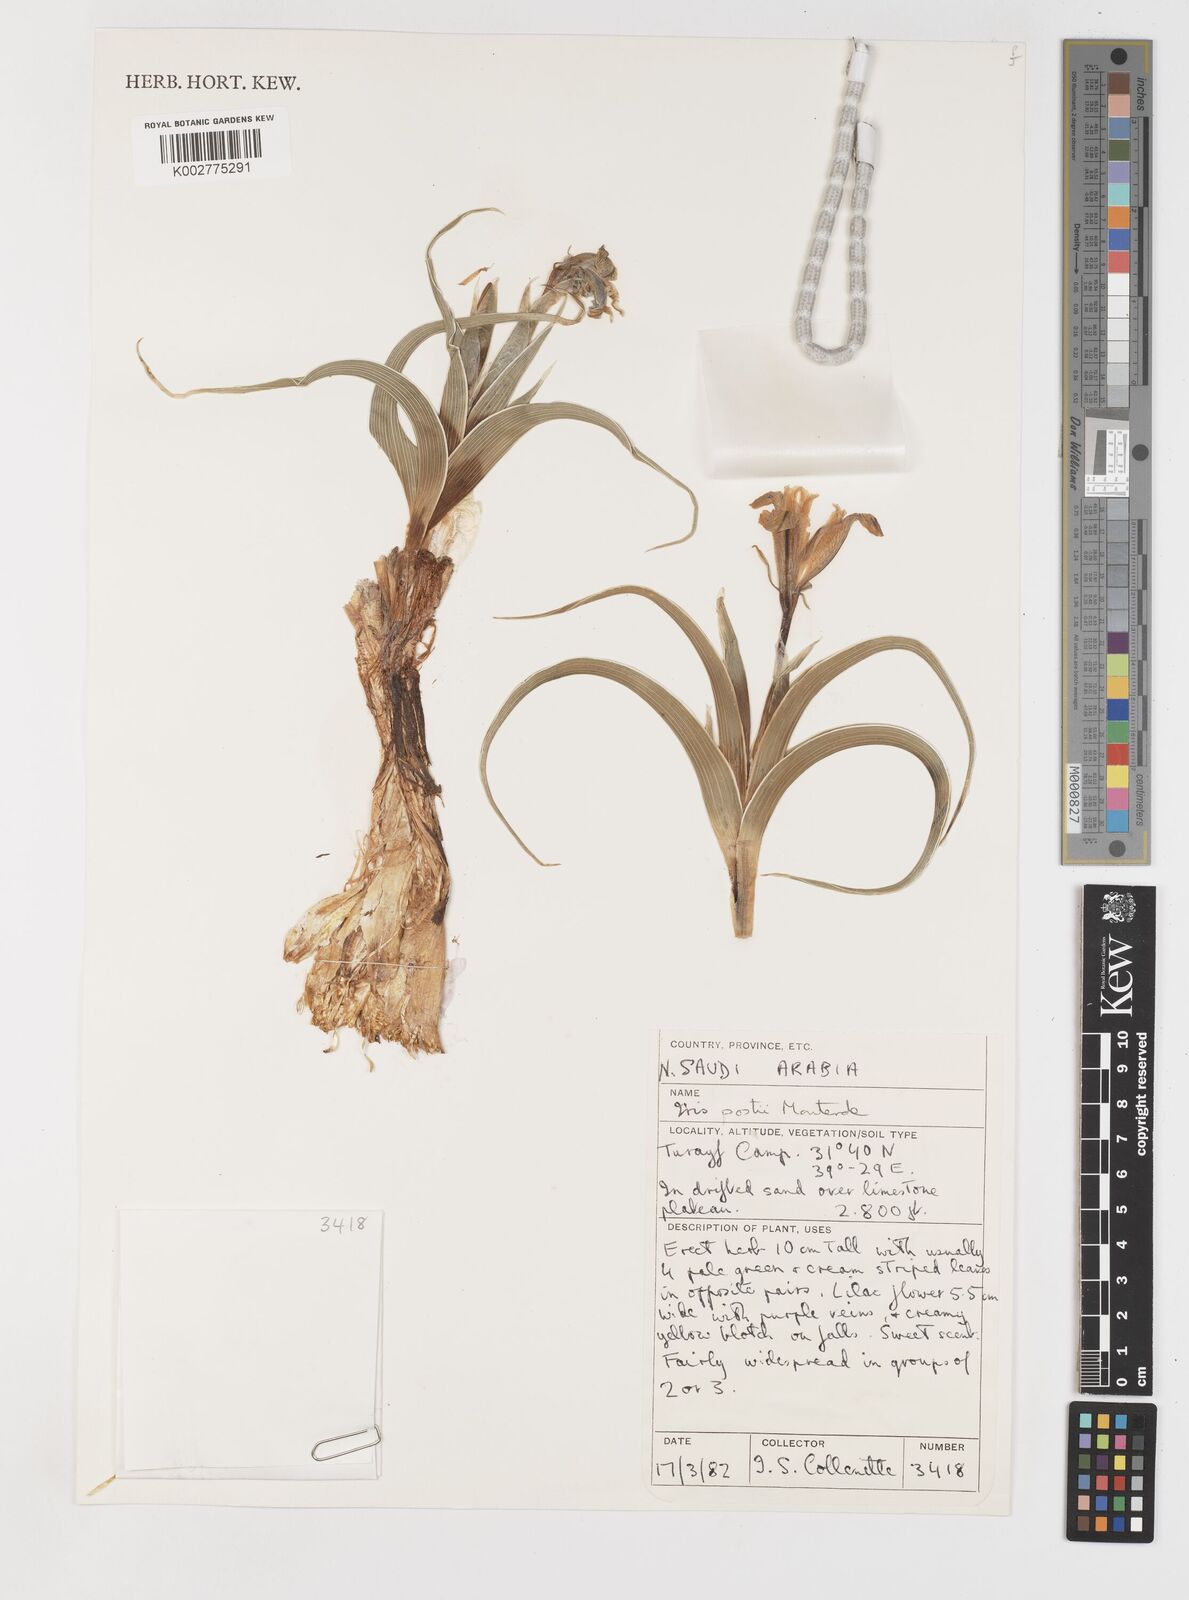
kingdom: Plantae
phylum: Tracheophyta
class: Liliopsida
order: Asparagales
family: Iridaceae
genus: Iris
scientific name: Iris postii
